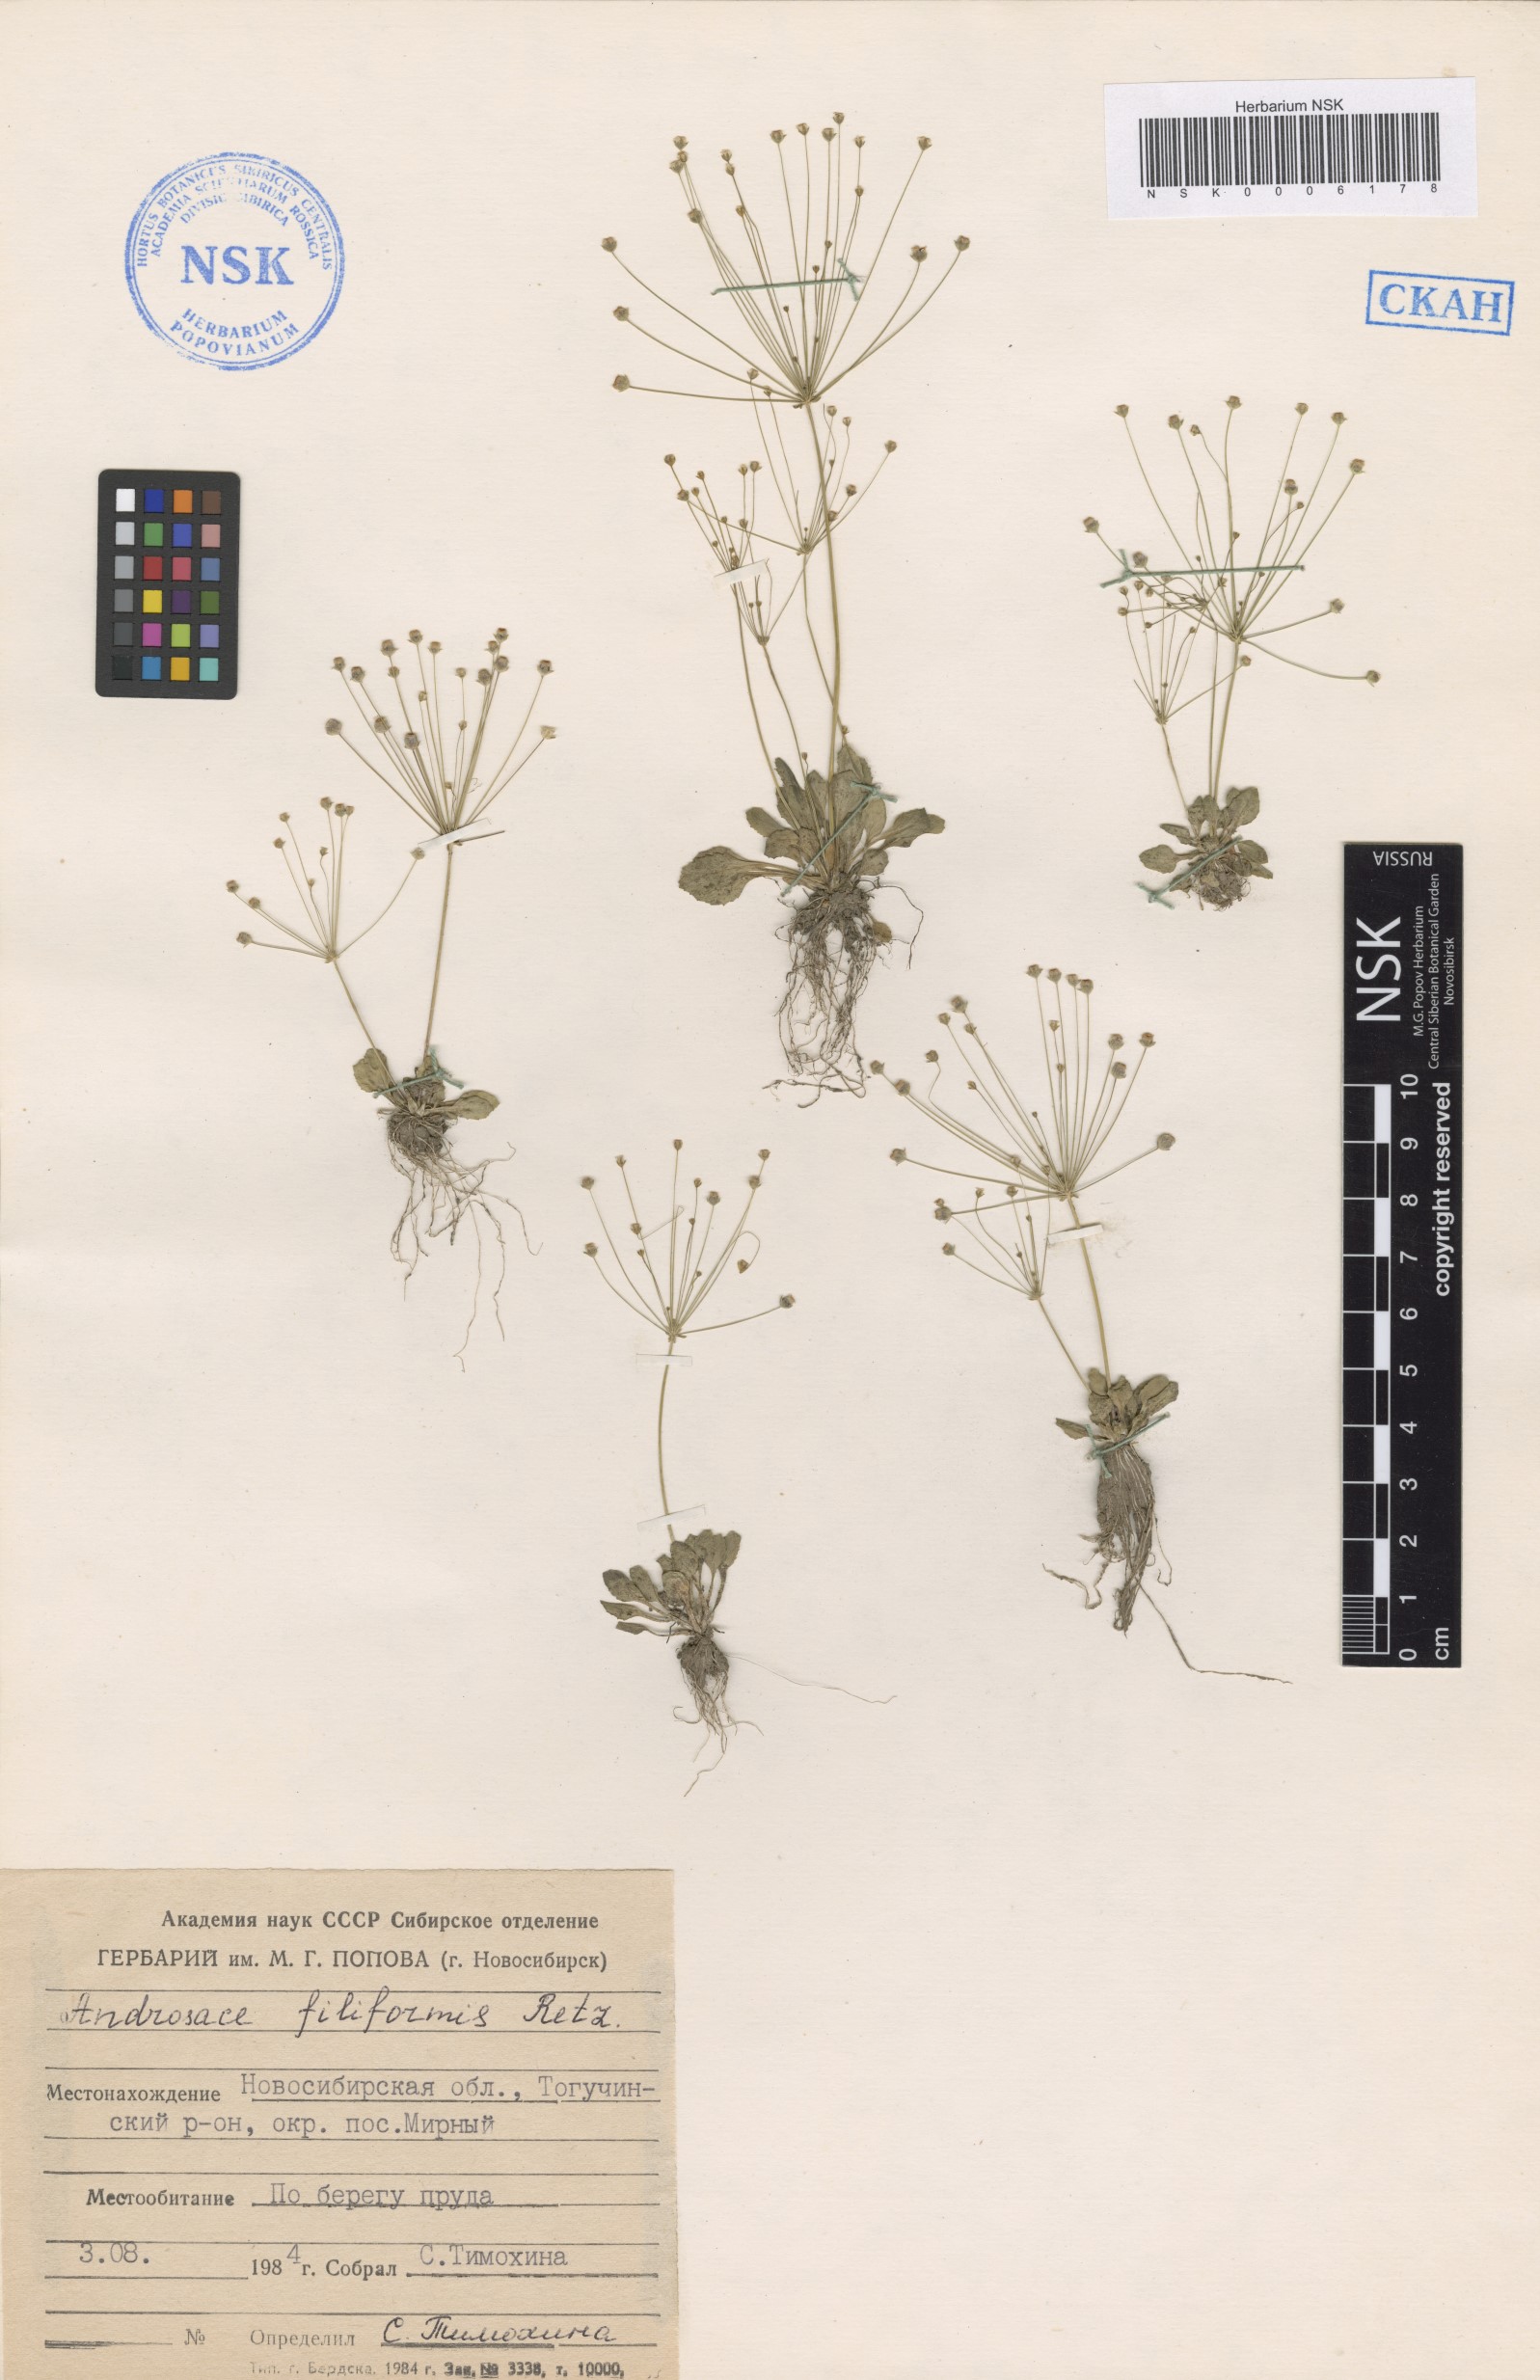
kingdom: Plantae
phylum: Tracheophyta
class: Magnoliopsida
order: Ericales
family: Primulaceae
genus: Androsace
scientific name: Androsace filiformis
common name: Filiform rock jasmine
